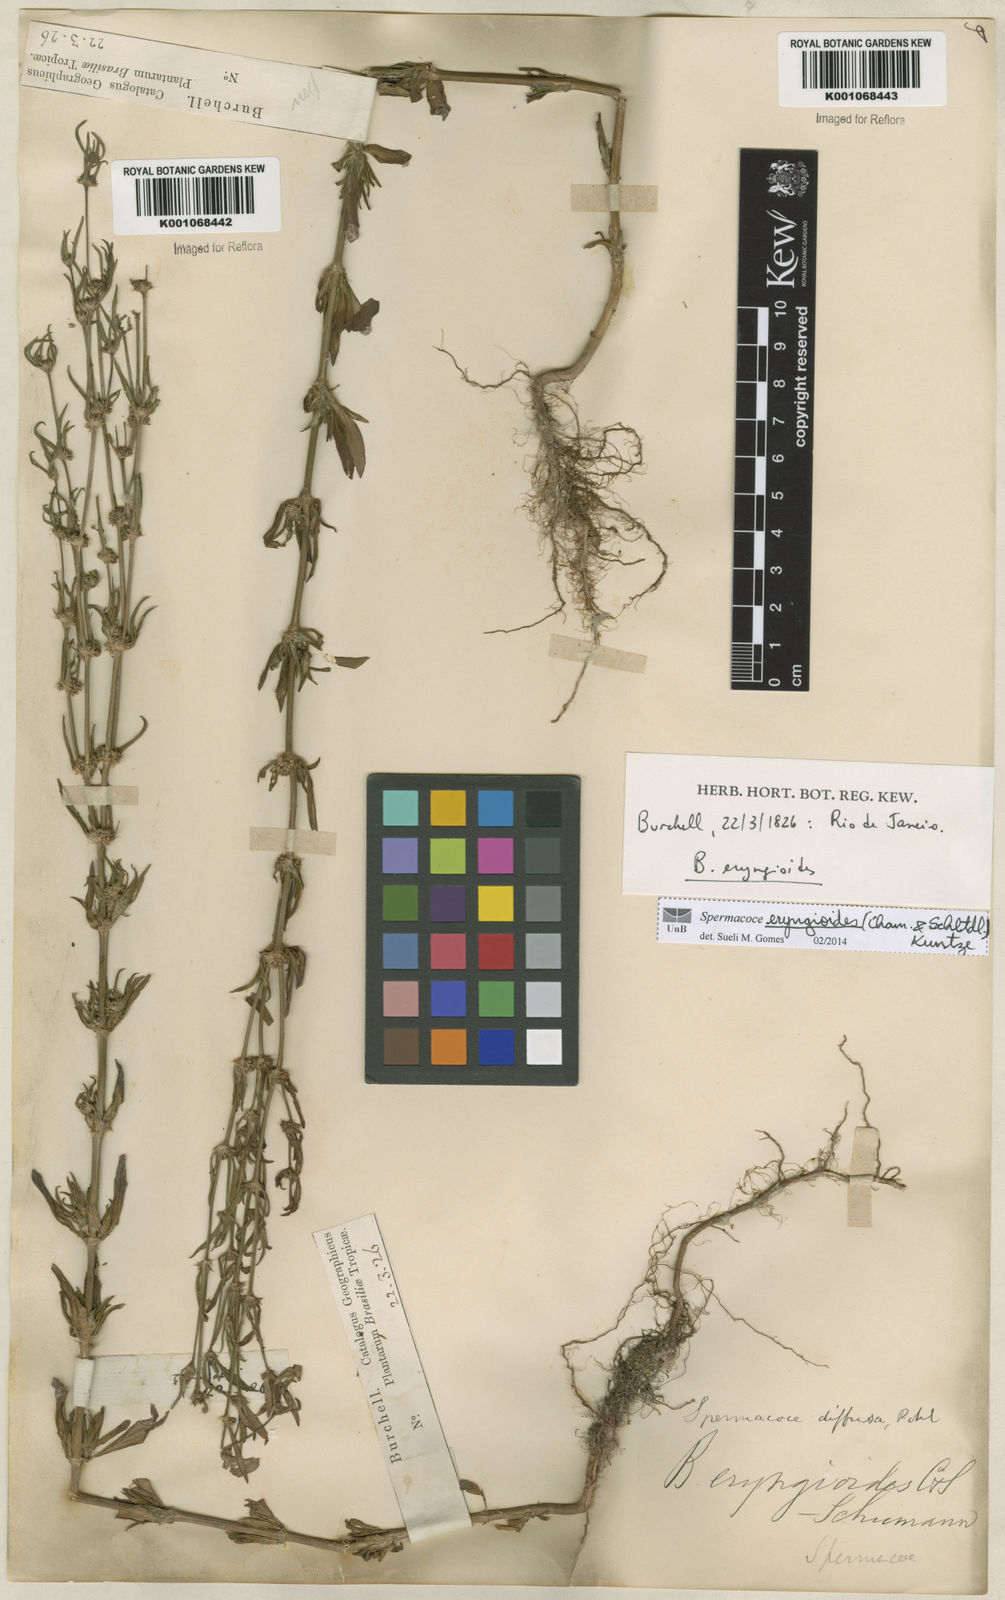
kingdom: Plantae
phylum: Tracheophyta
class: Magnoliopsida
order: Gentianales
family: Rubiaceae
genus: Spermacoce
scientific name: Spermacoce eryngioides
